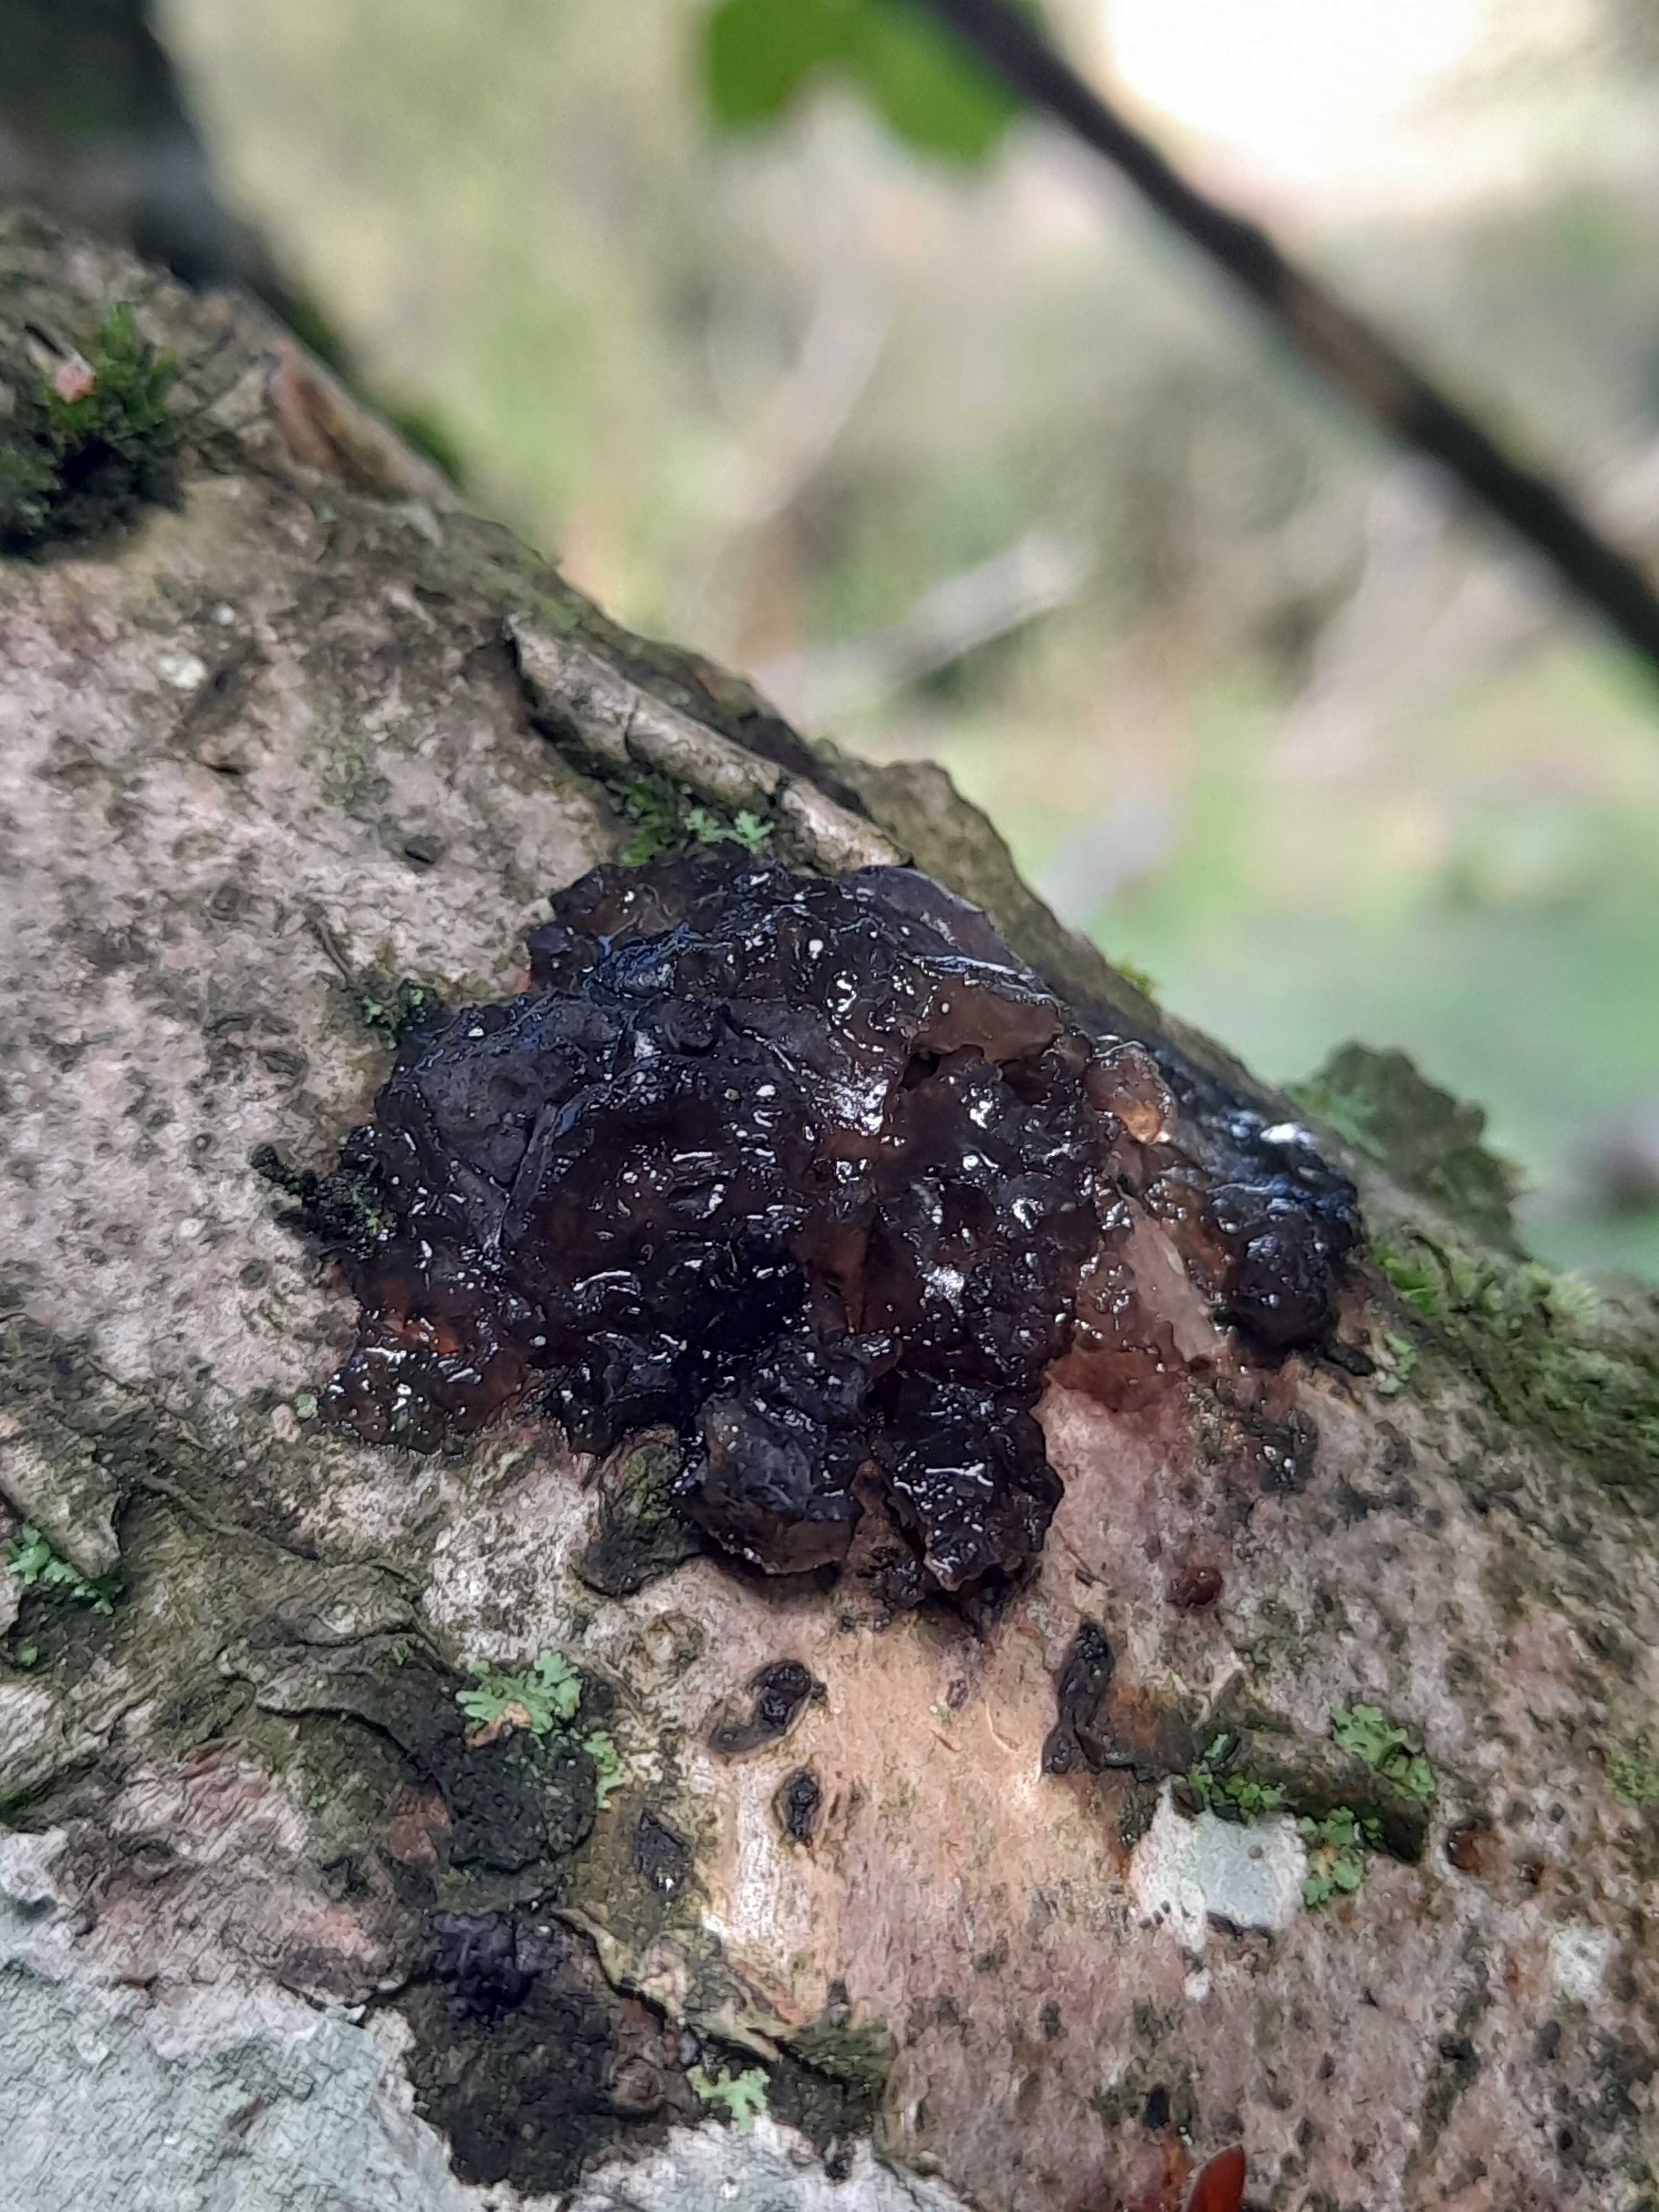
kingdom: Fungi
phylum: Basidiomycota
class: Agaricomycetes
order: Auriculariales
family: Auriculariaceae
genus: Exidia
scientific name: Exidia nigricans
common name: almindelig bævretop
